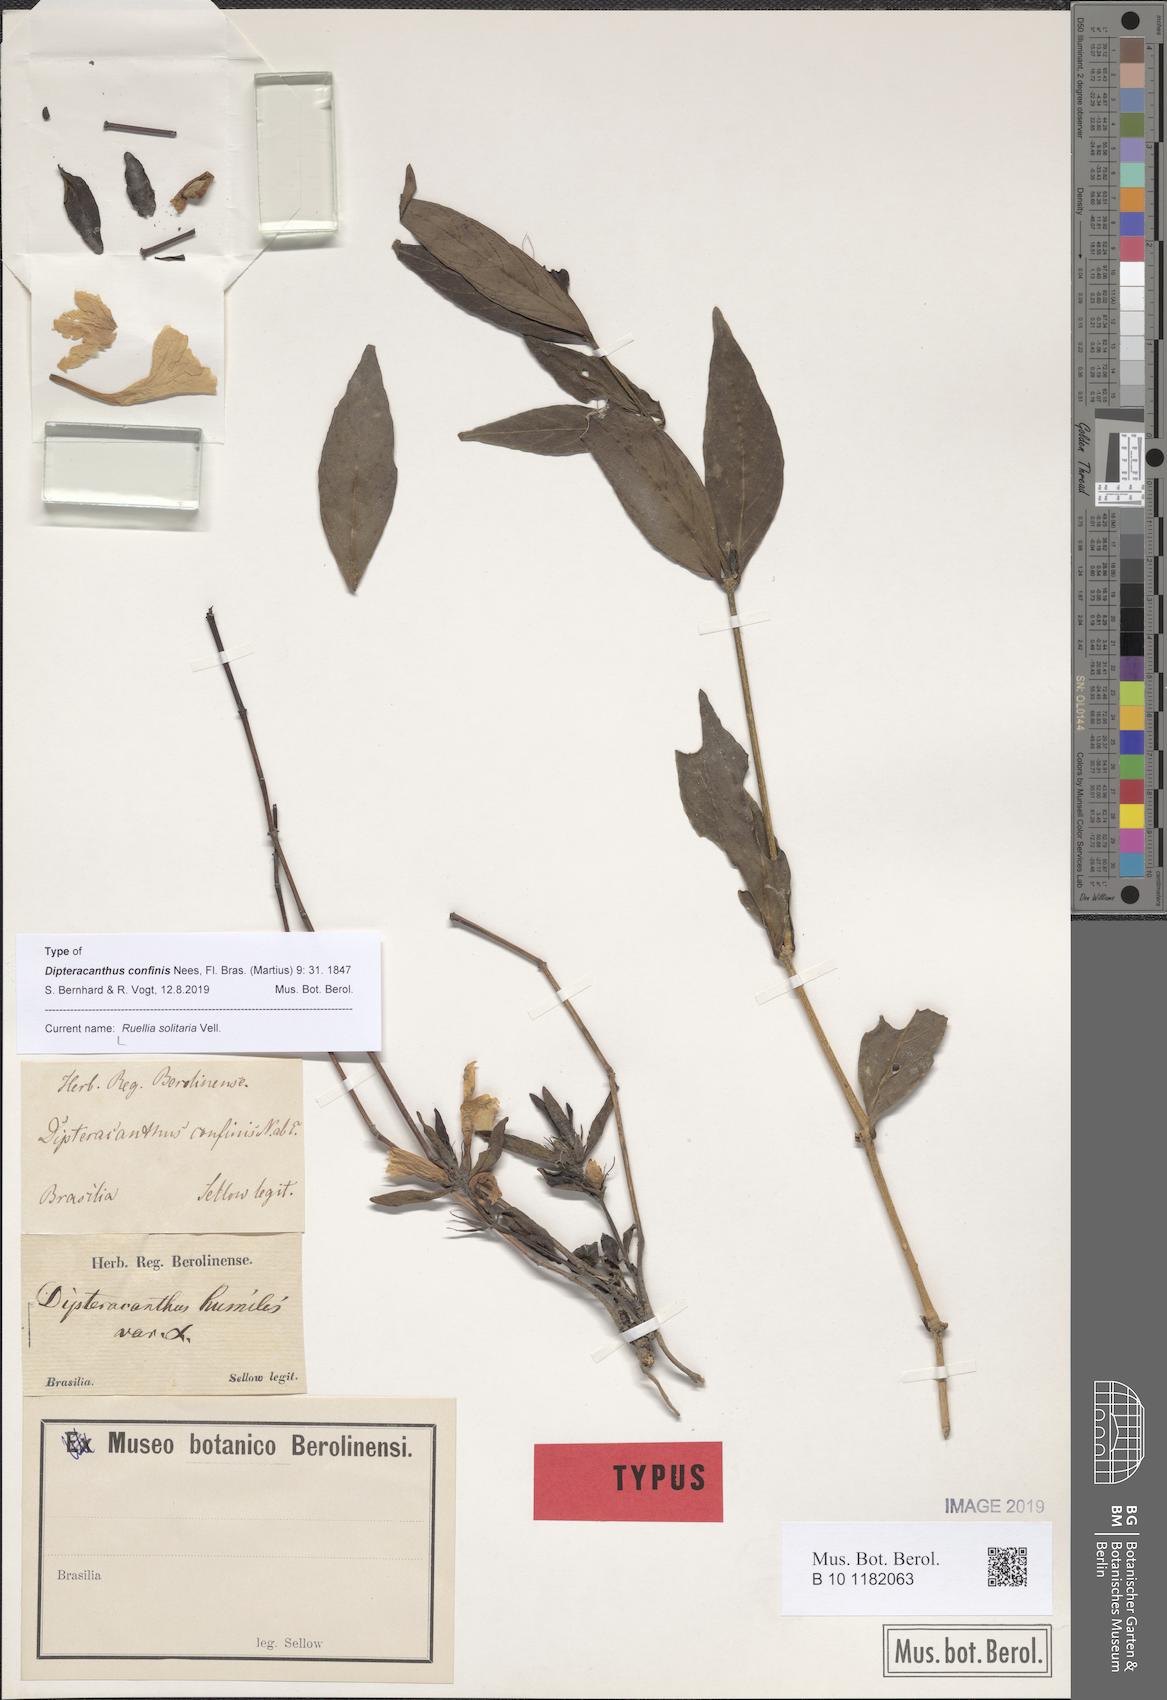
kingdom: Plantae
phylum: Tracheophyta
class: Magnoliopsida
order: Lamiales
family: Acanthaceae
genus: Ruellia
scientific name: Ruellia solitaria
